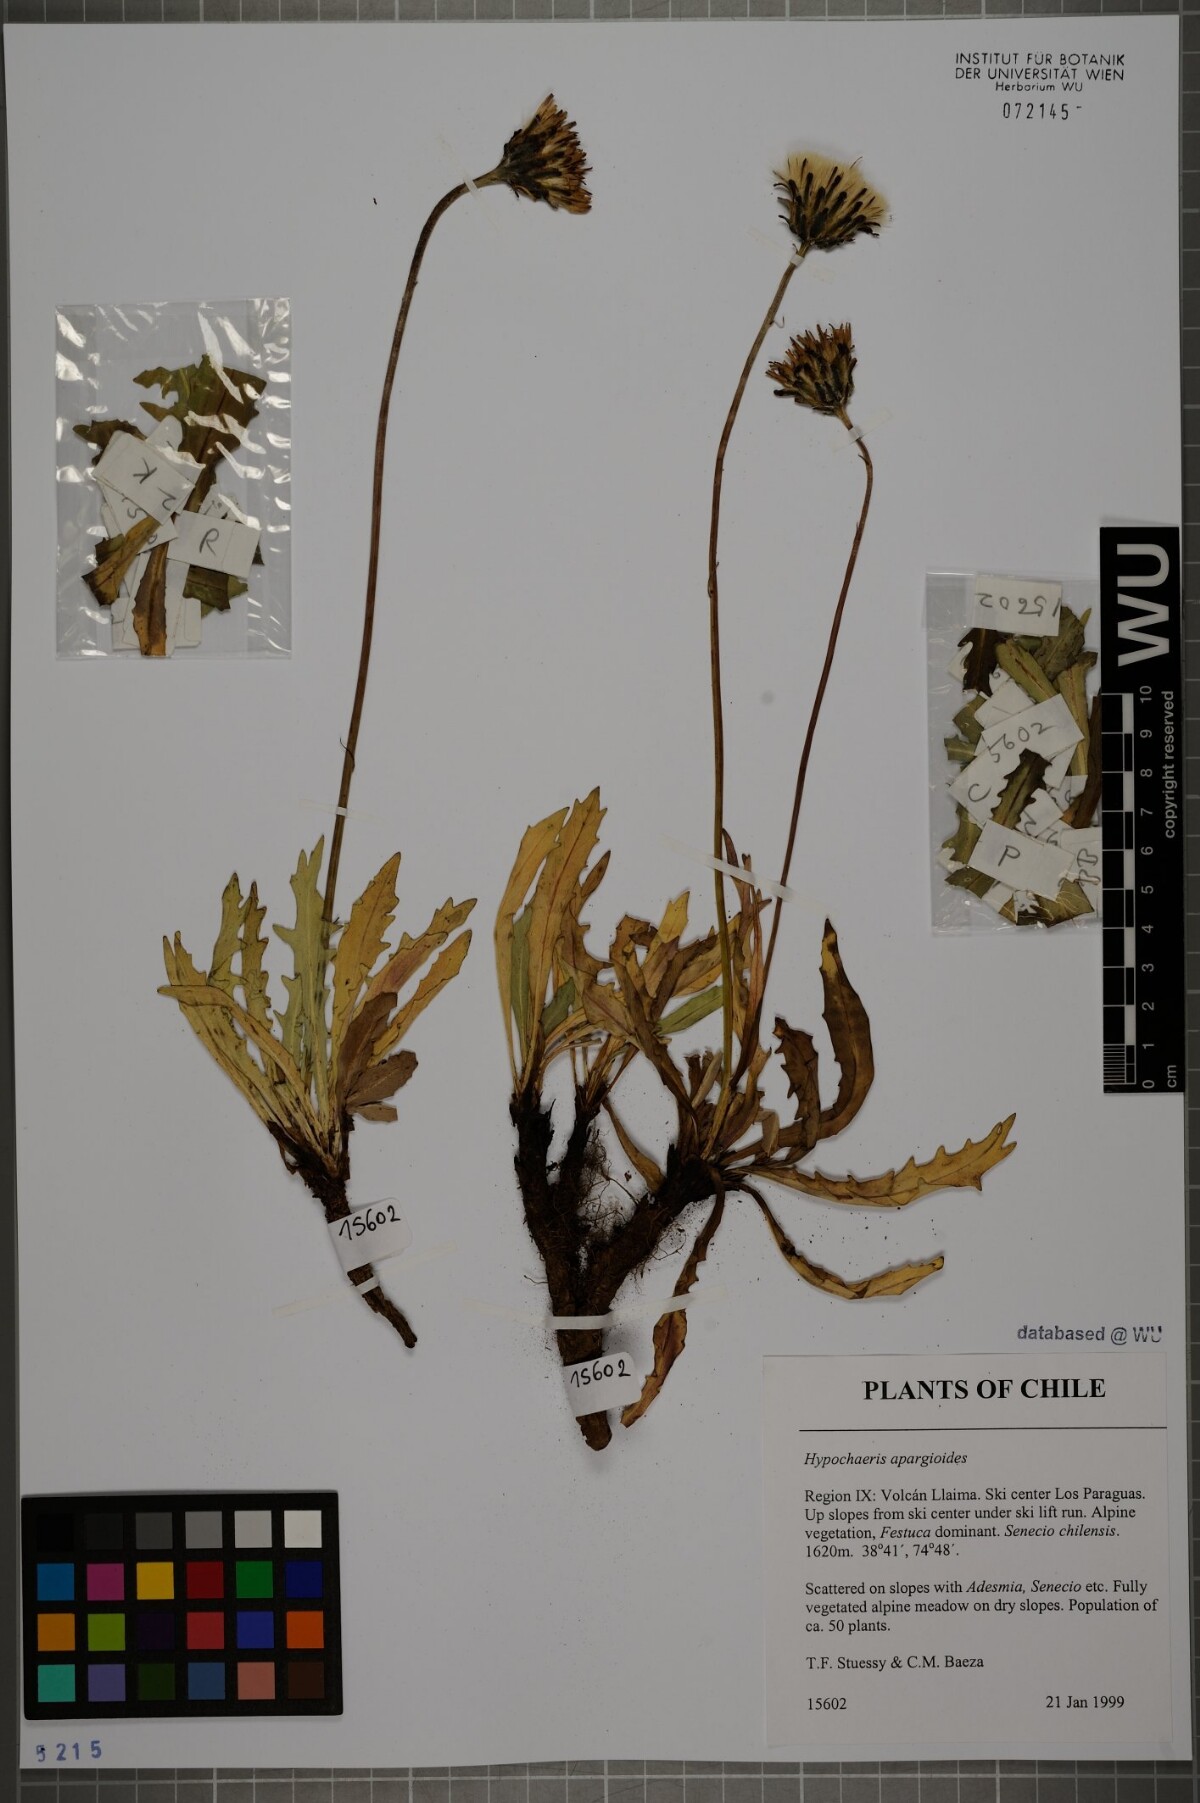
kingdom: Plantae
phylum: Tracheophyta
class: Magnoliopsida
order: Asterales
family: Asteraceae
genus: Hypochaeris
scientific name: Hypochaeris apargioides
